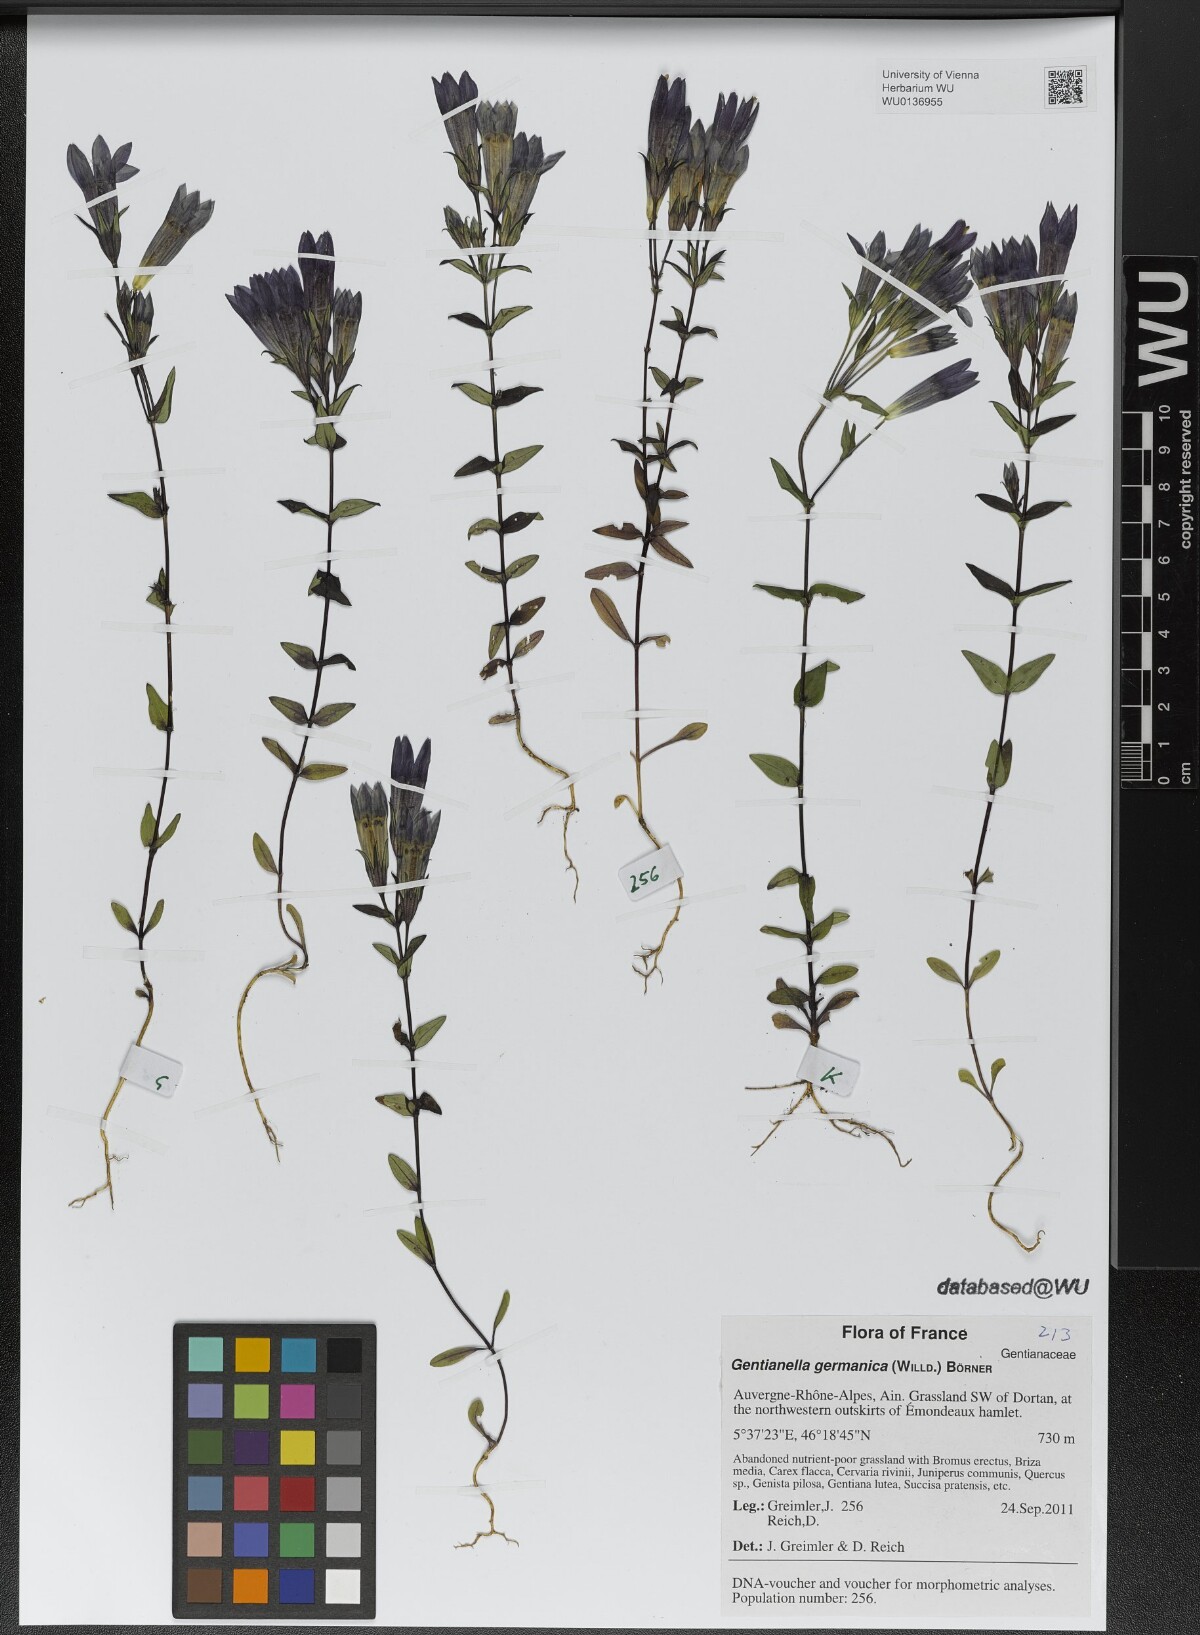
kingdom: Plantae
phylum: Tracheophyta
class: Magnoliopsida
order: Gentianales
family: Gentianaceae
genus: Gentianella
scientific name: Gentianella germanica
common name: Chiltern-gentian
